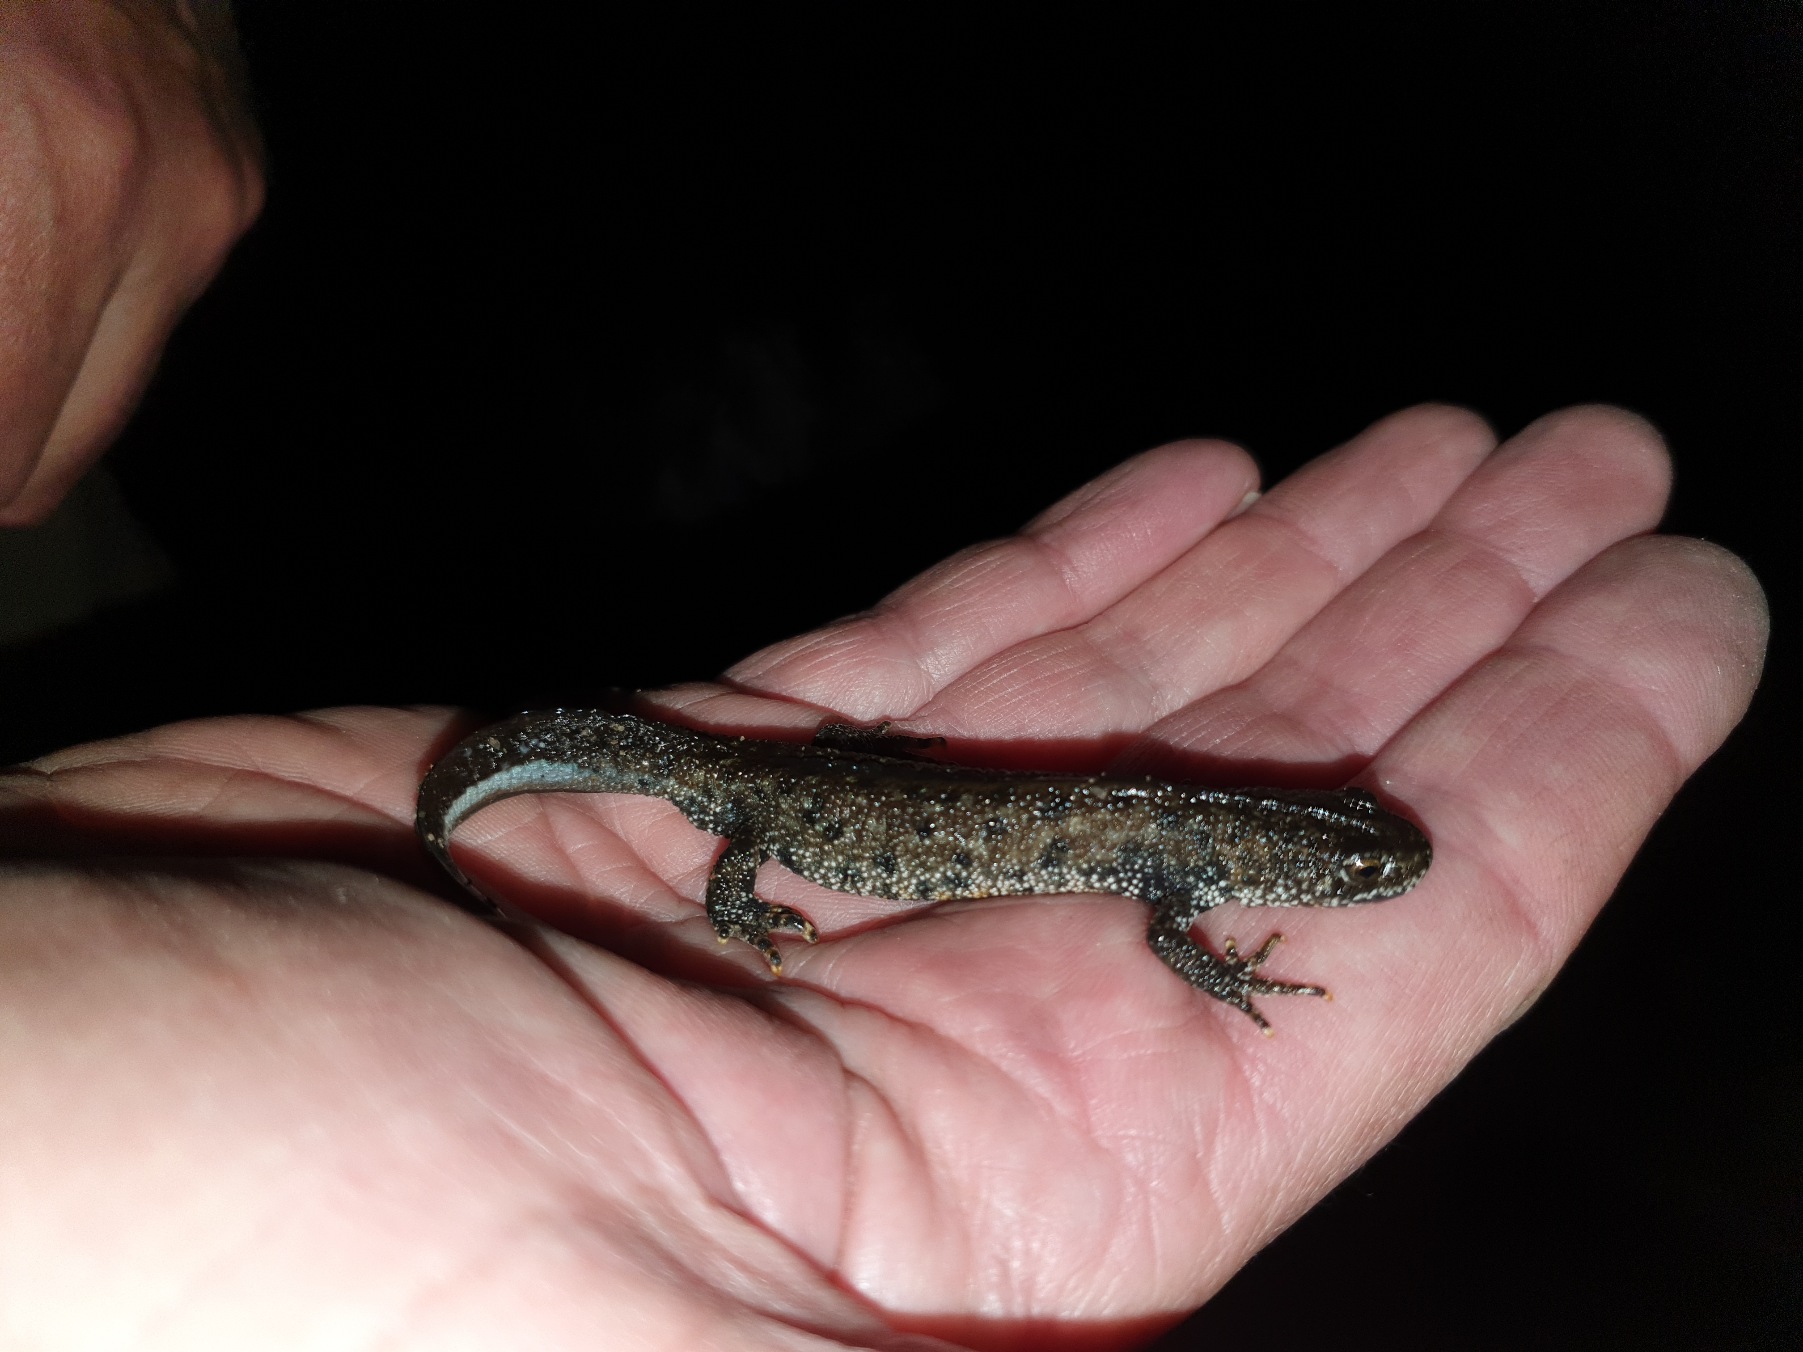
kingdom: Animalia
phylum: Chordata
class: Amphibia
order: Caudata
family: Salamandridae
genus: Triturus
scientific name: Triturus cristatus
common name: Stor vandsalamander
